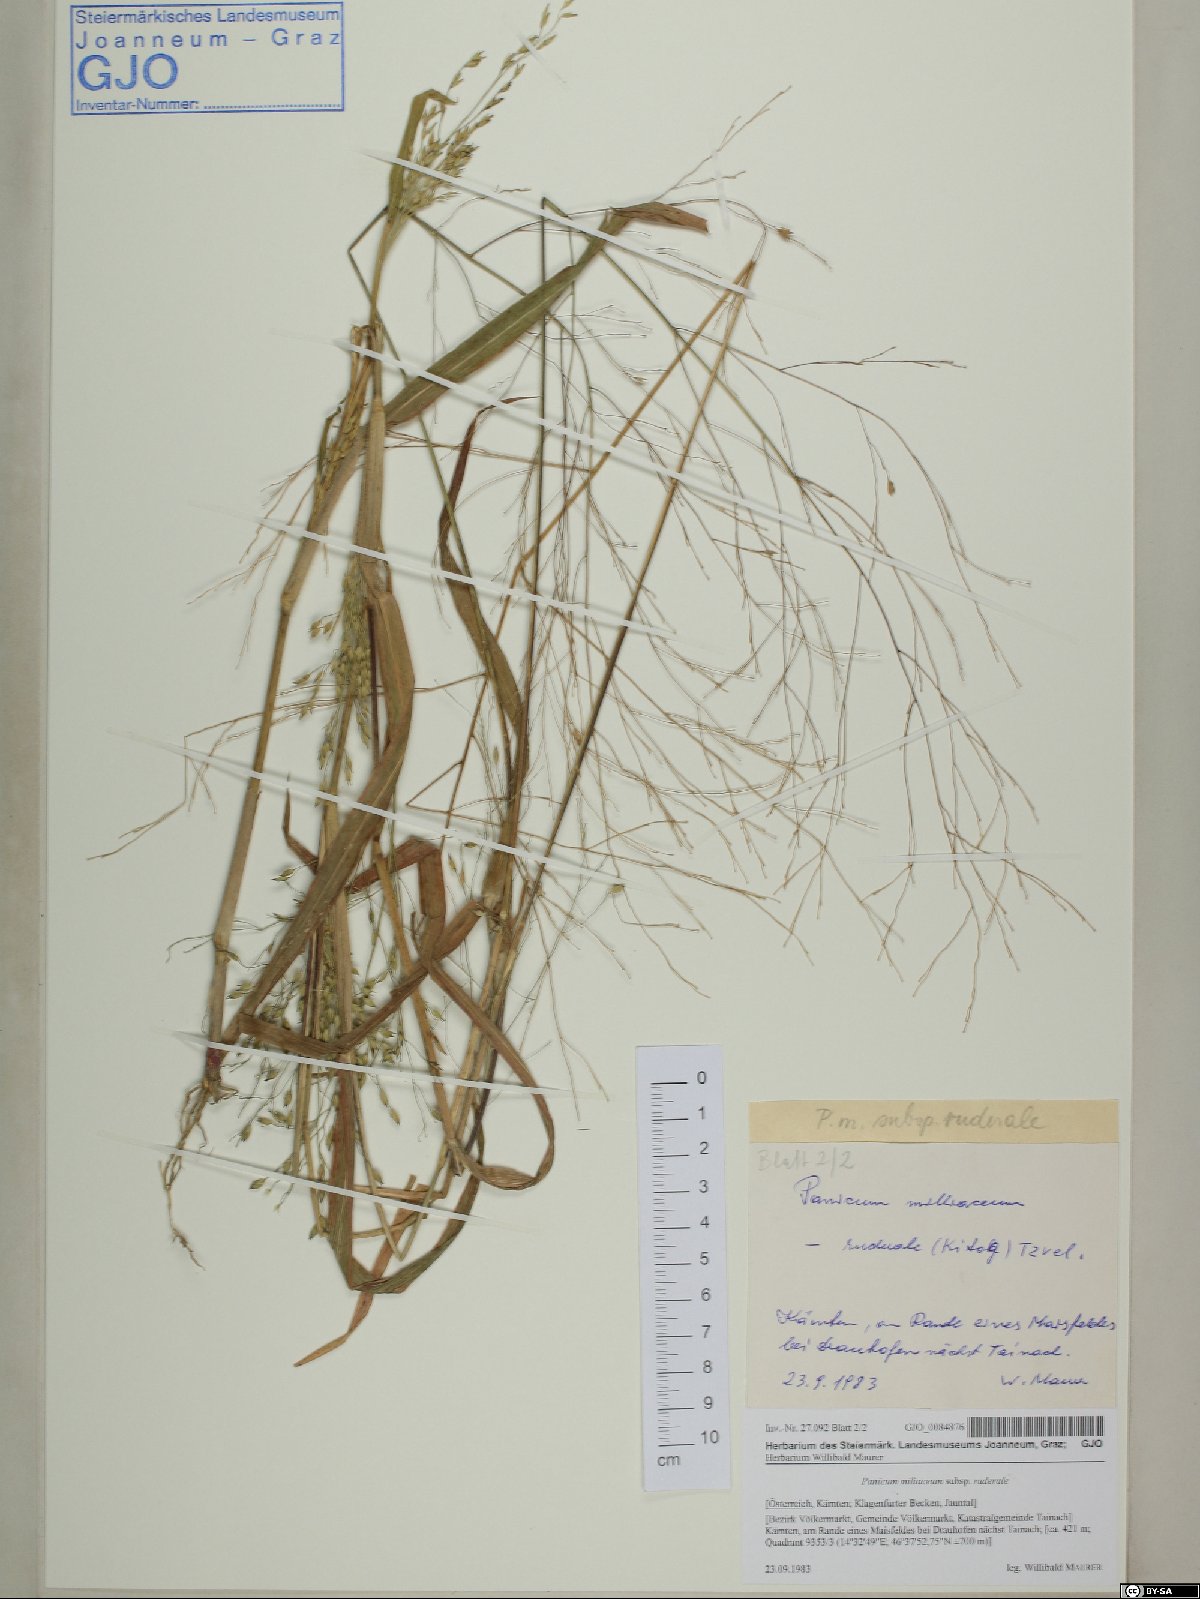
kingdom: Plantae
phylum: Tracheophyta
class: Liliopsida
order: Poales
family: Poaceae
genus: Panicum
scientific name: Panicum miliaceum
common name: Common millet
